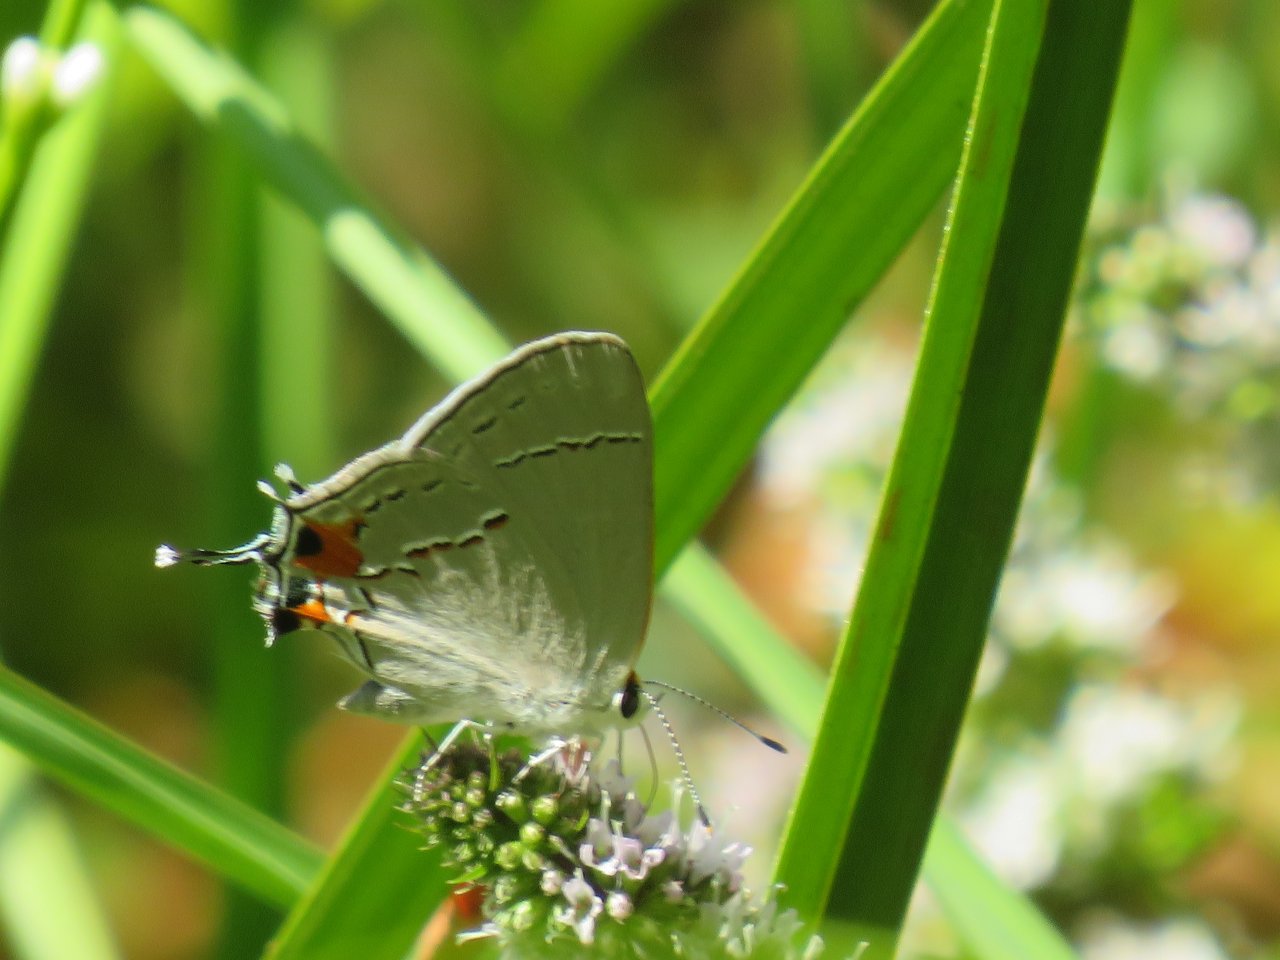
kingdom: Animalia
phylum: Arthropoda
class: Insecta
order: Lepidoptera
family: Lycaenidae
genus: Strymon
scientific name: Strymon melinus
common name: Gray Hairstreak
